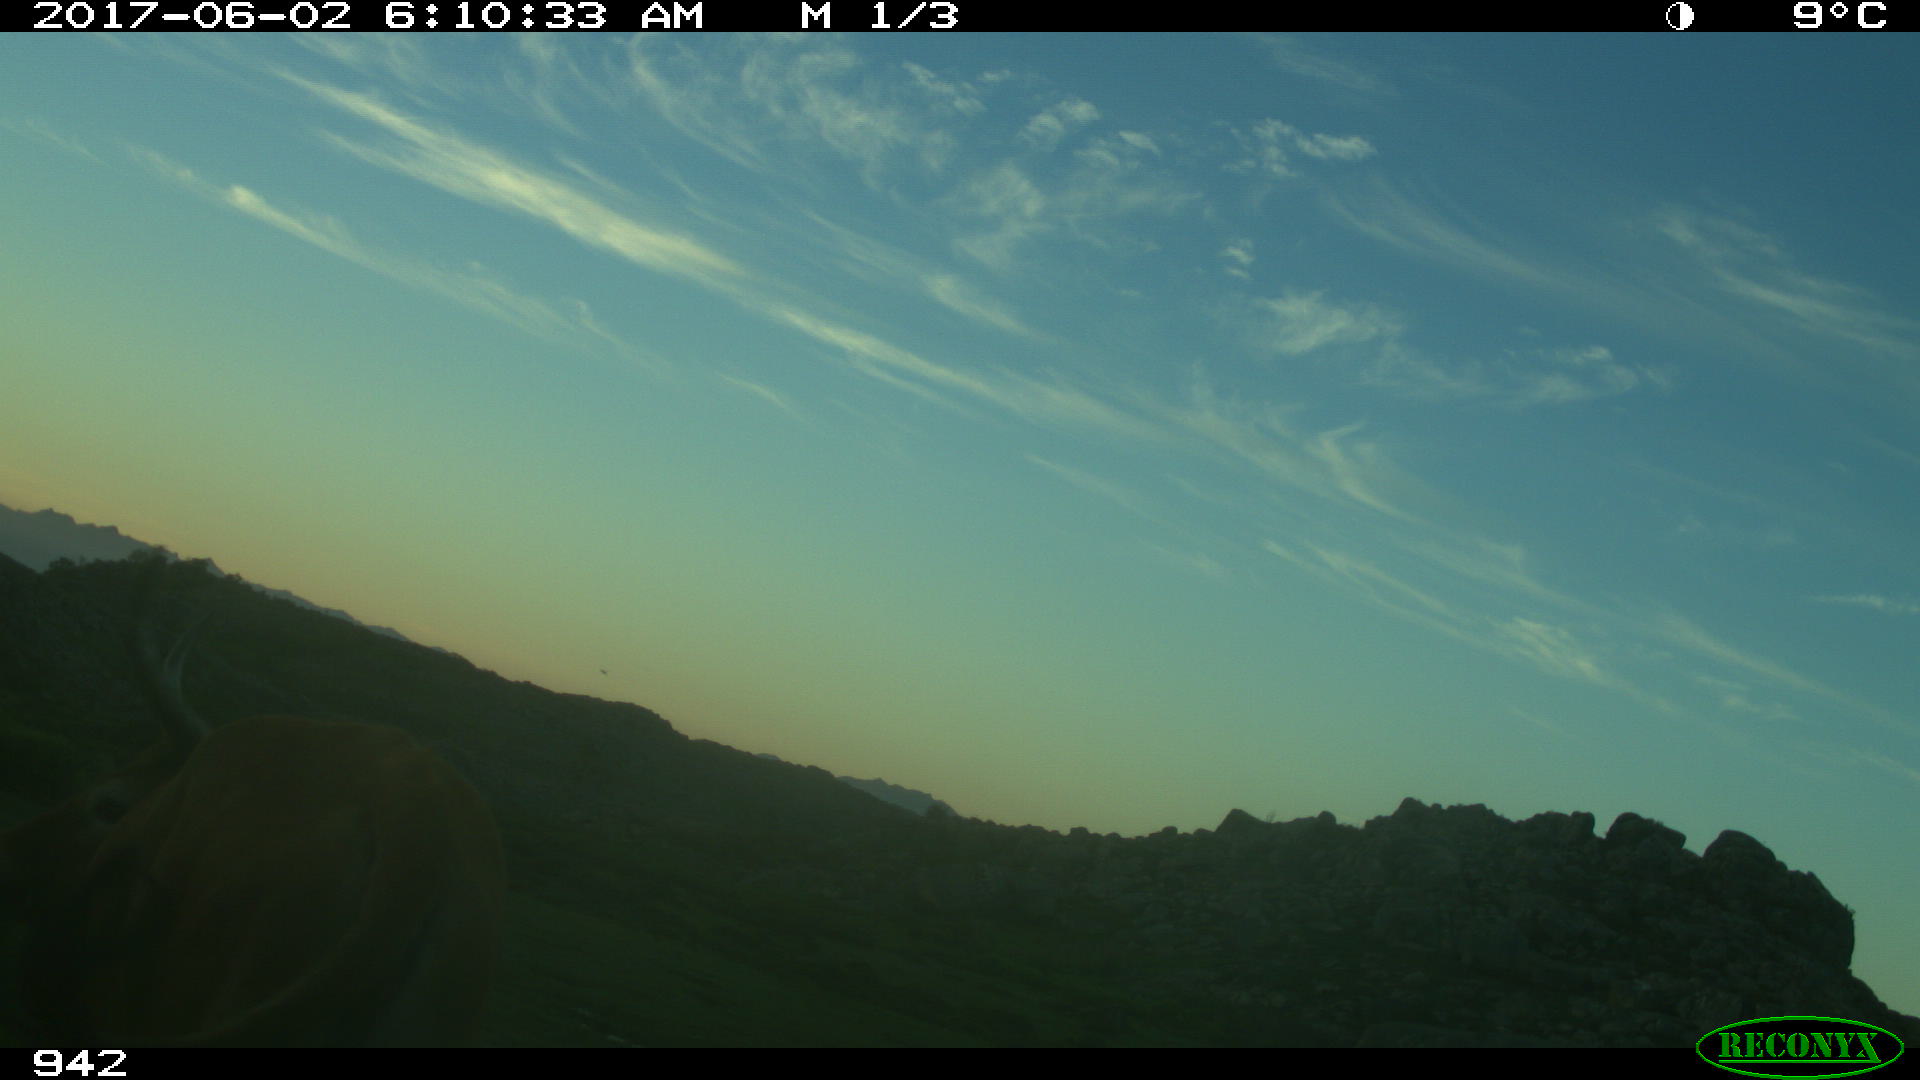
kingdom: Animalia
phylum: Chordata
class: Mammalia
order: Artiodactyla
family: Bovidae
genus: Bos
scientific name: Bos taurus
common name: Domesticated cattle
